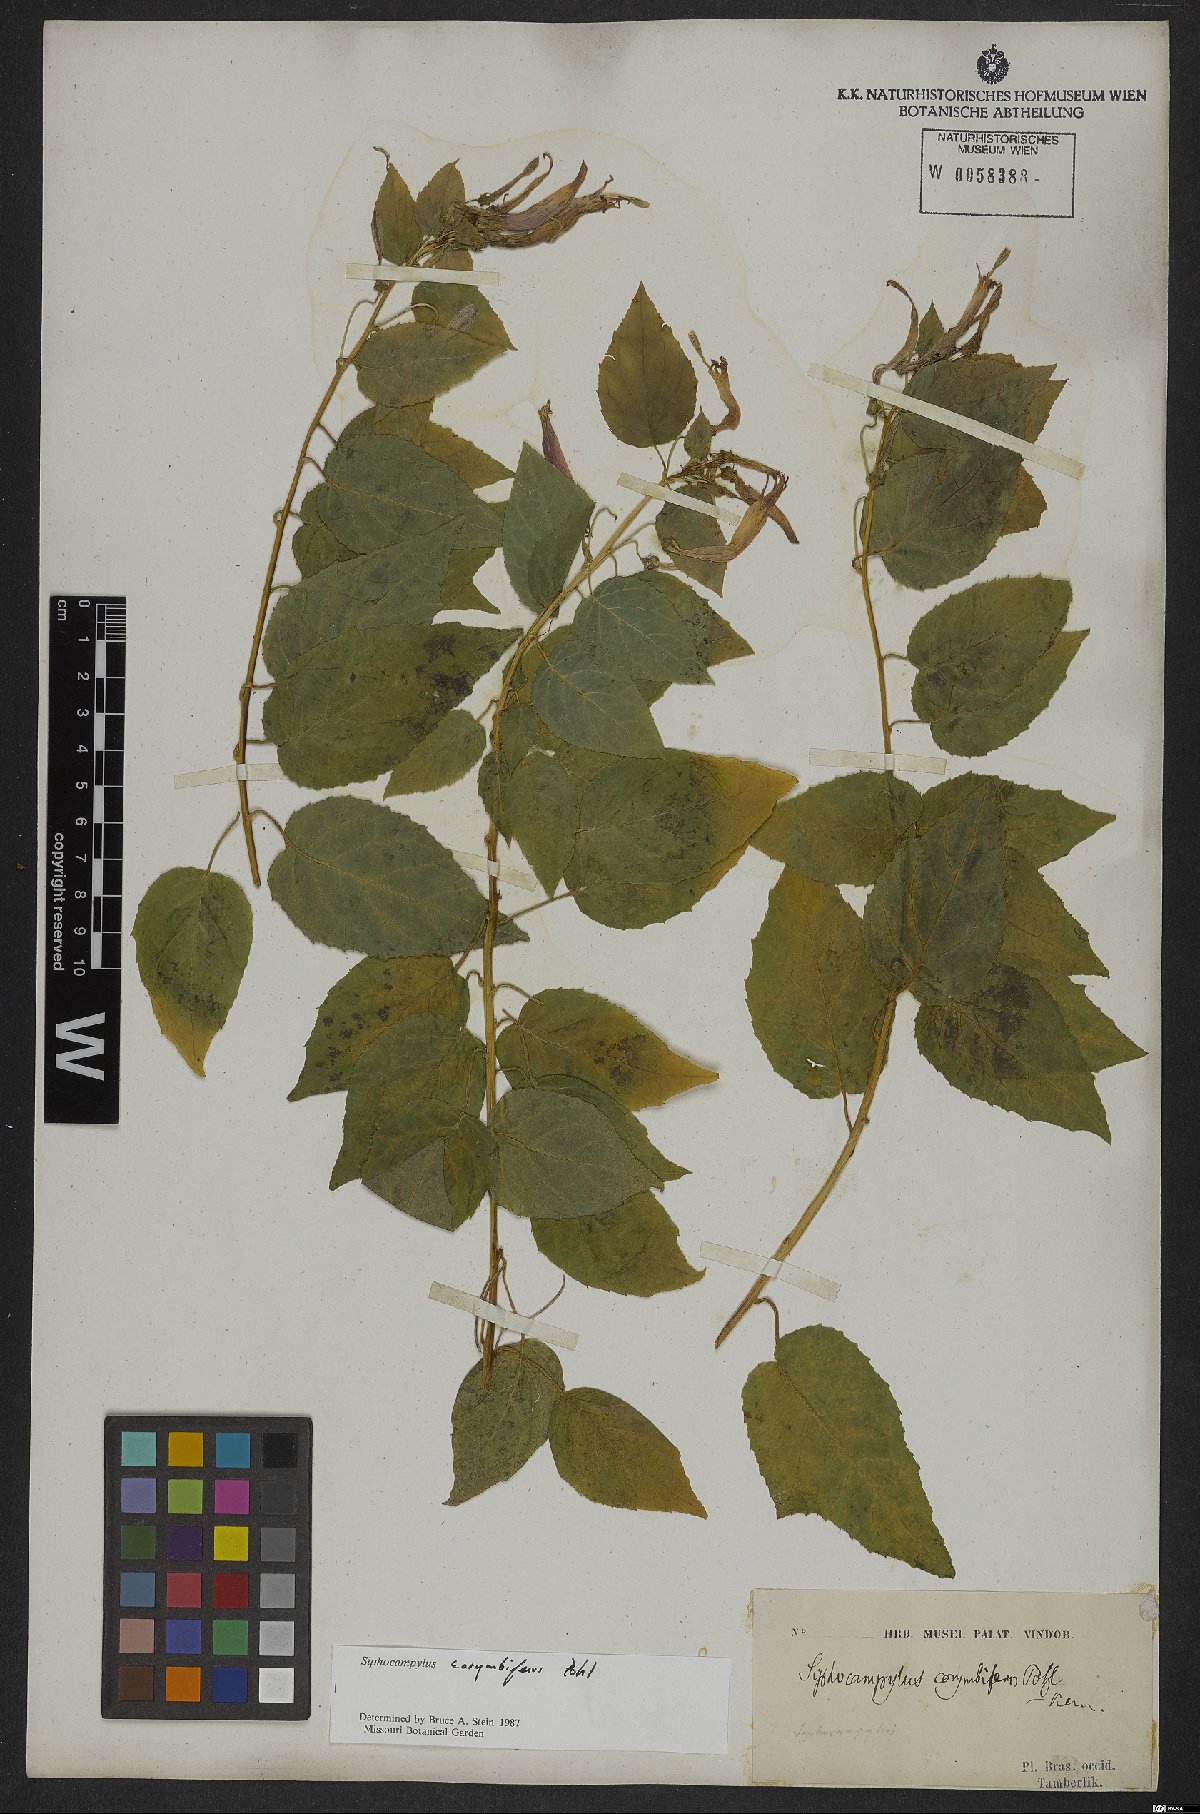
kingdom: Plantae
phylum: Tracheophyta
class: Magnoliopsida
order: Asterales
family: Campanulaceae
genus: Siphocampylus
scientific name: Siphocampylus corymbiferus
